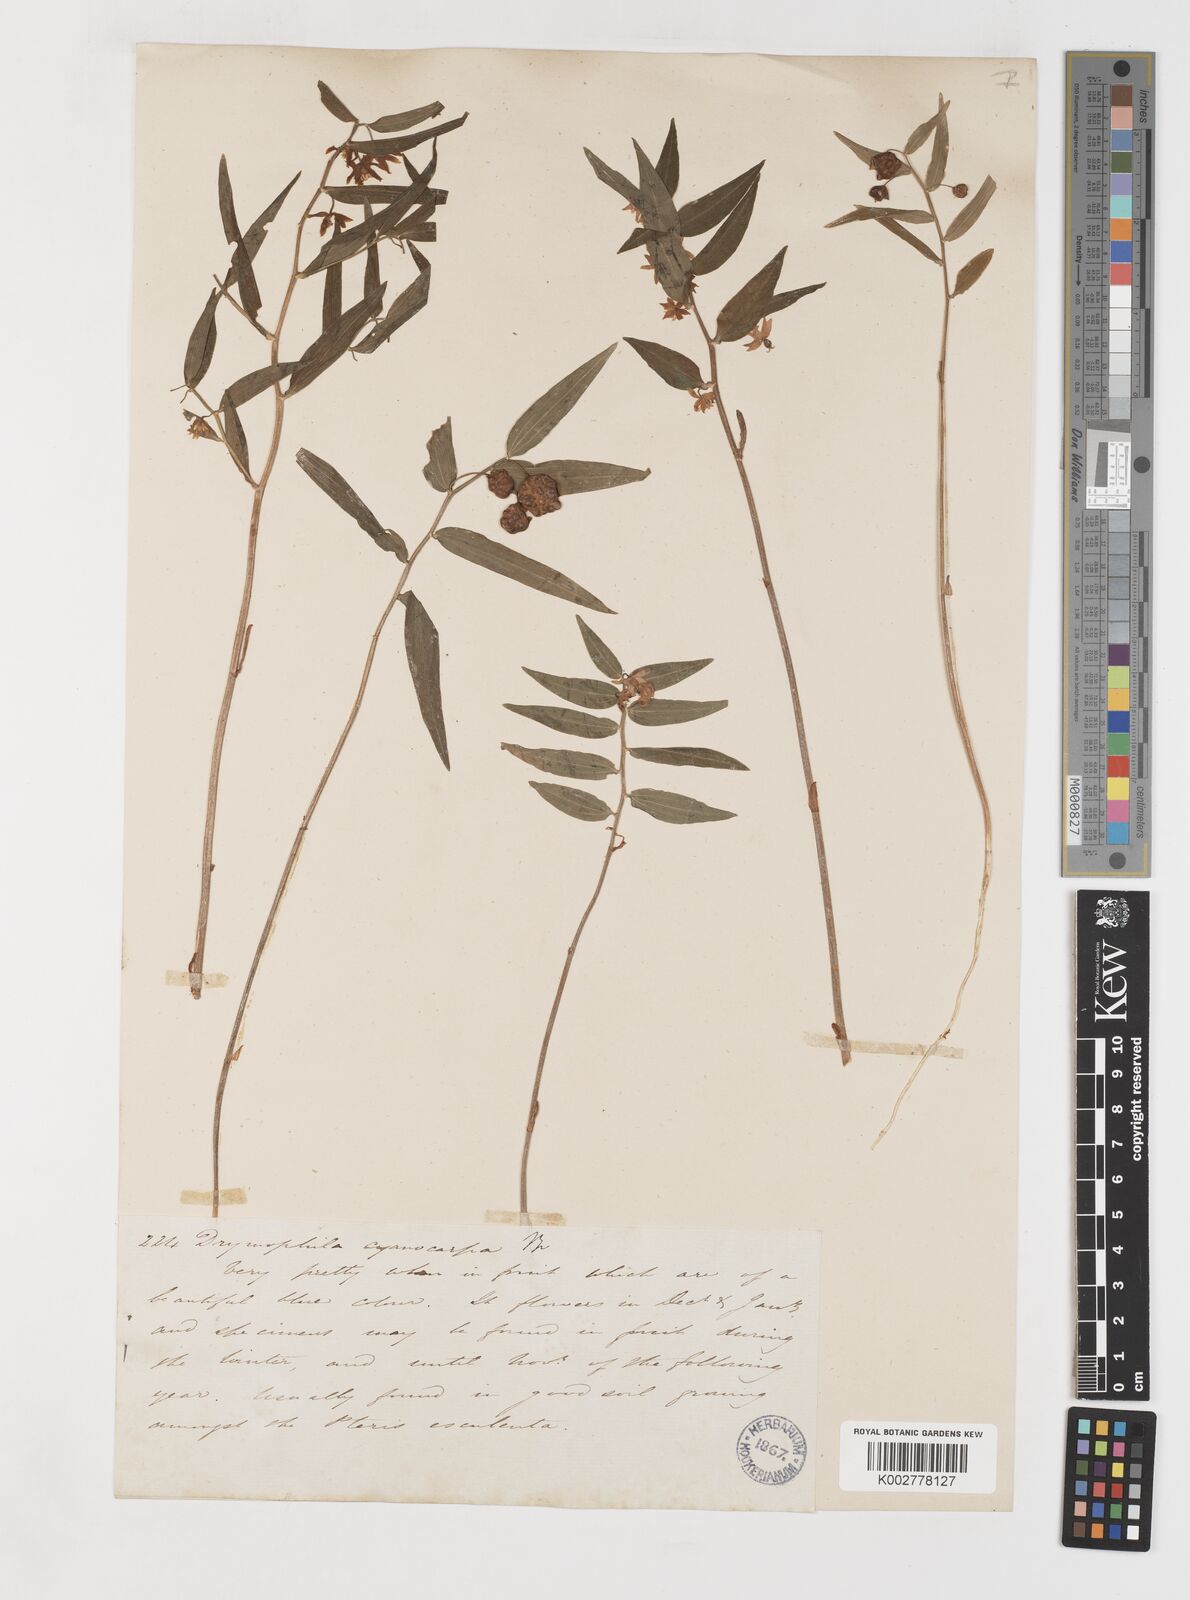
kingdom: Plantae
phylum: Tracheophyta
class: Liliopsida
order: Liliales
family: Alstroemeriaceae
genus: Drymophila
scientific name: Drymophila cyanocarpa
